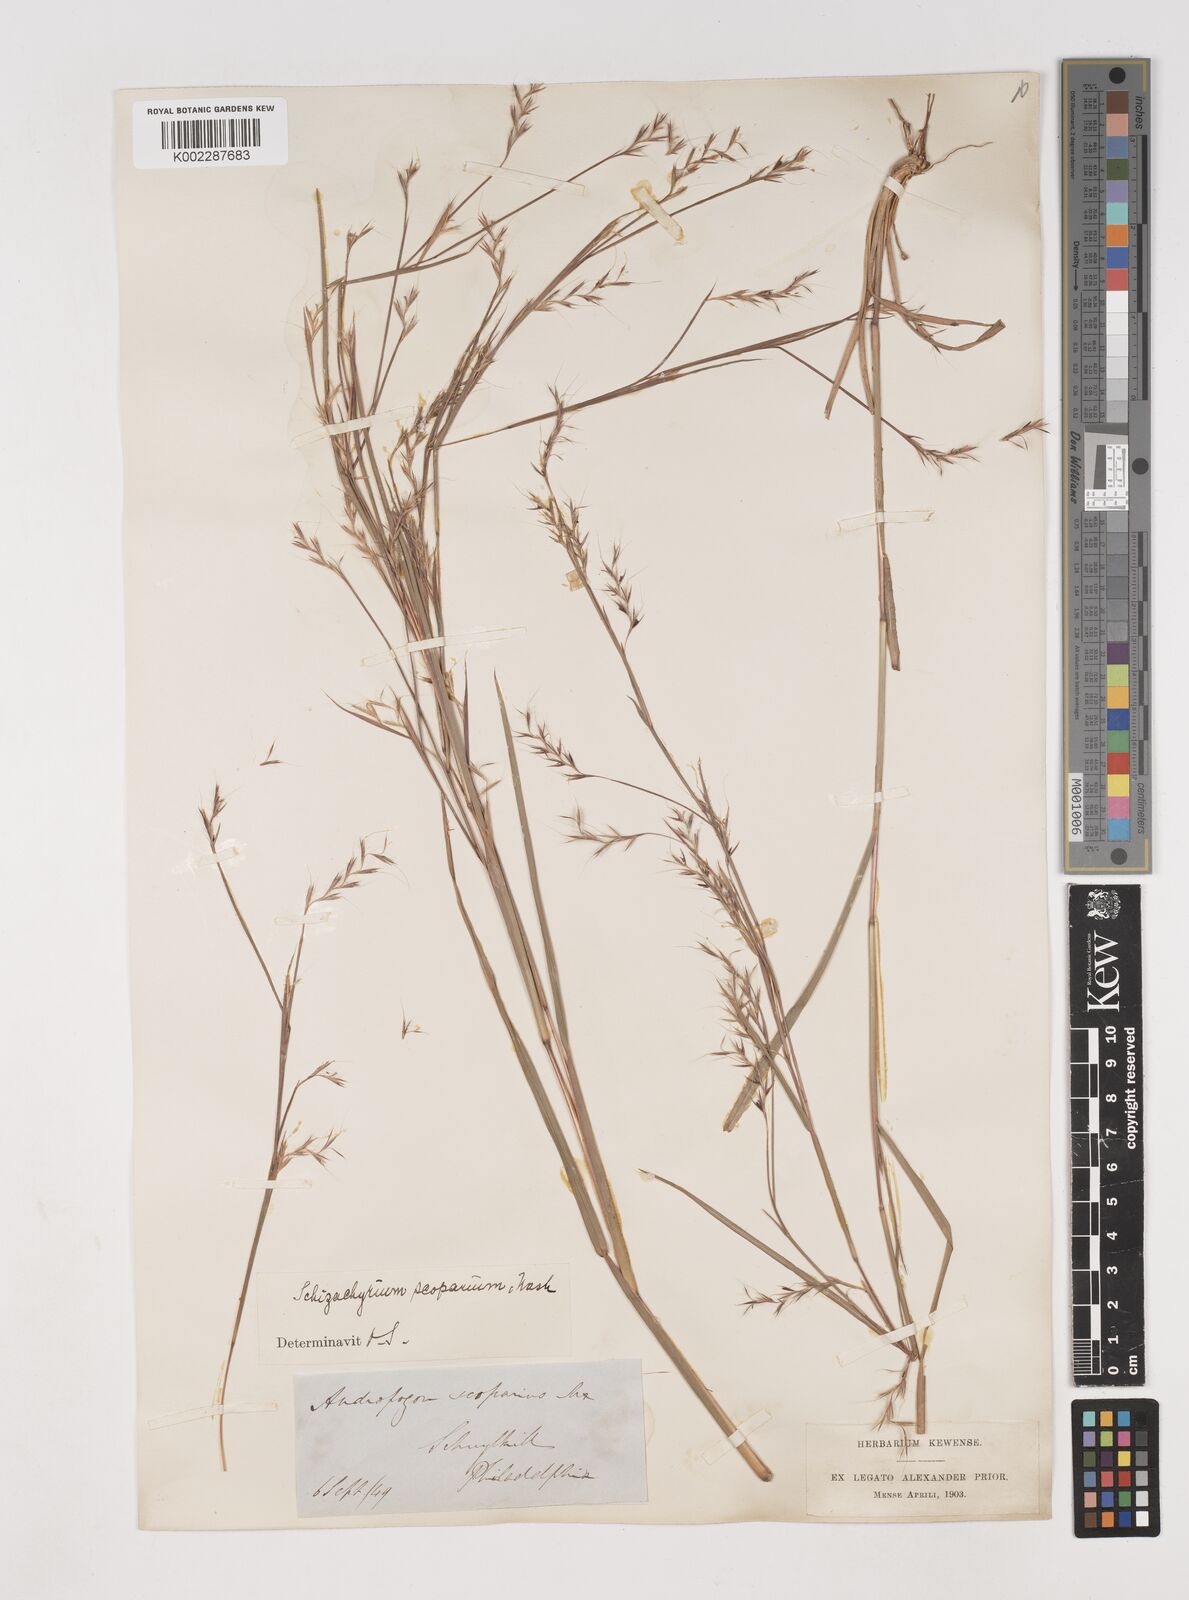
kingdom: Plantae
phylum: Tracheophyta
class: Liliopsida
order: Poales
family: Poaceae
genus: Schizachyrium
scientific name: Schizachyrium scoparium
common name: Little bluestem
